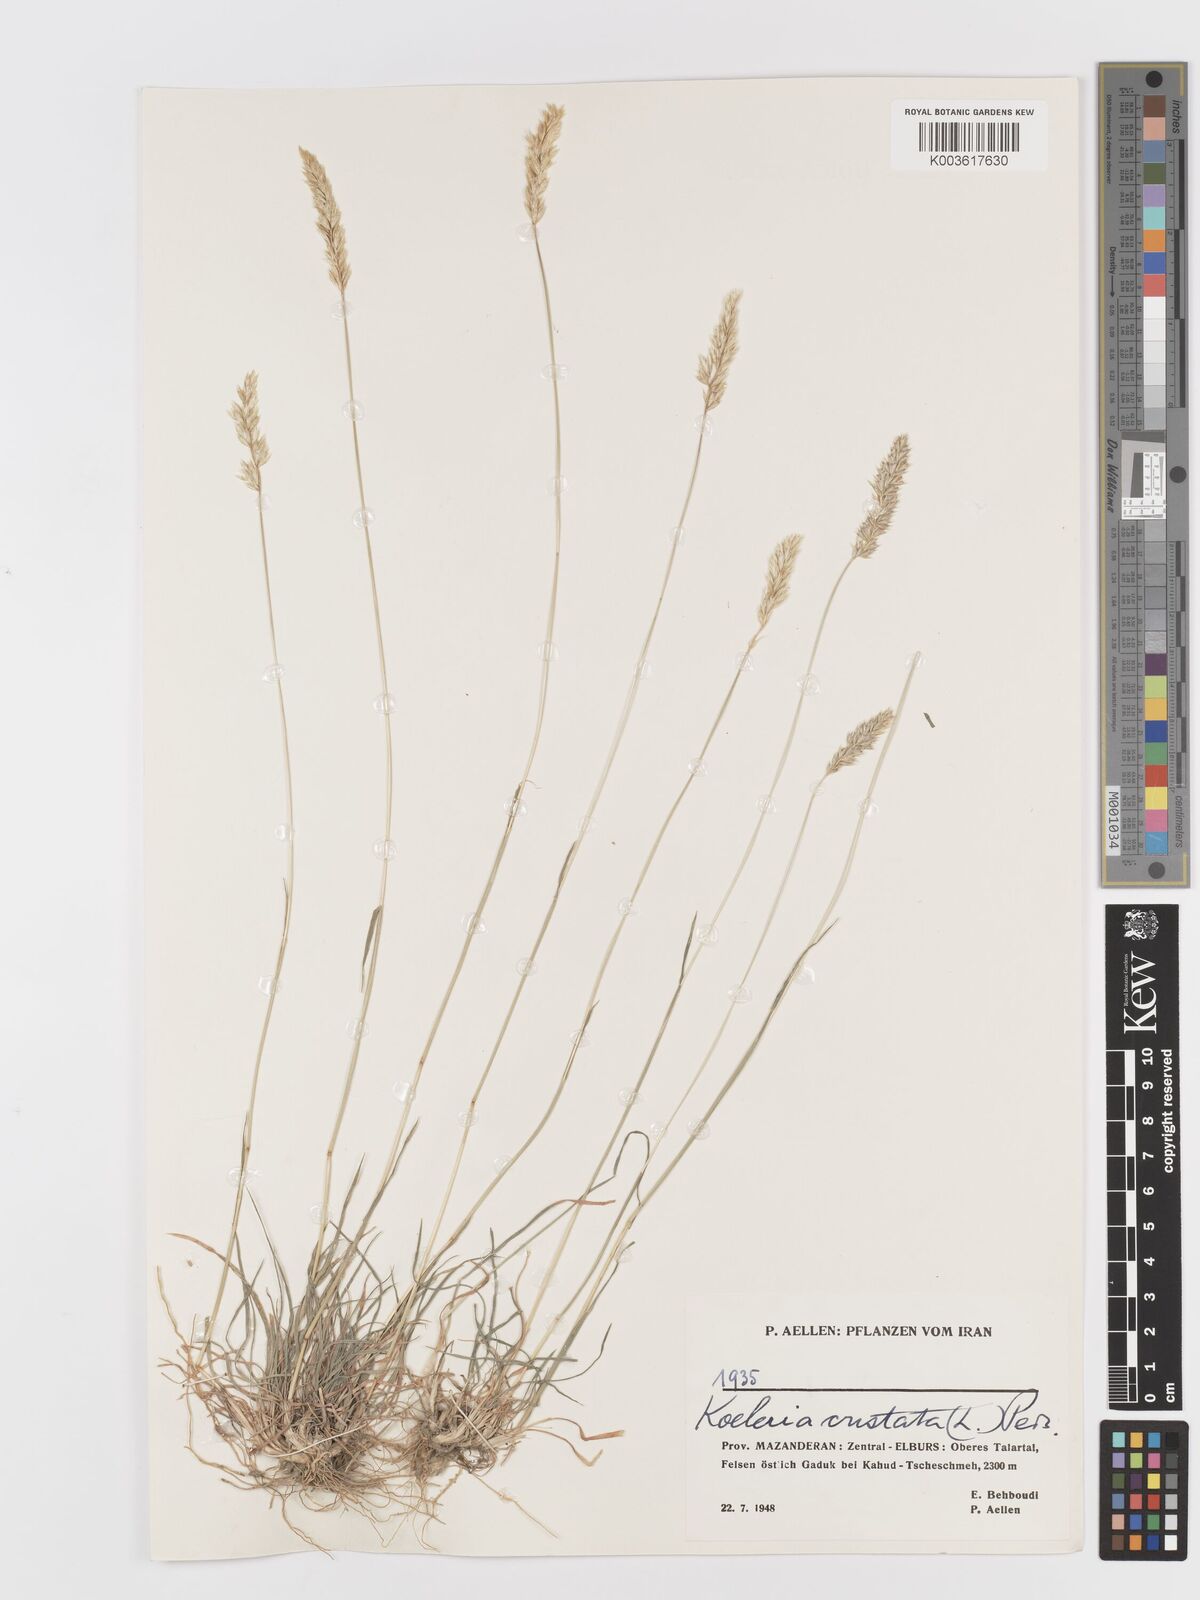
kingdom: Plantae
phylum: Tracheophyta
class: Liliopsida
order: Poales
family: Poaceae
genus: Koeleria
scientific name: Koeleria macrantha
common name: Crested hair-grass
